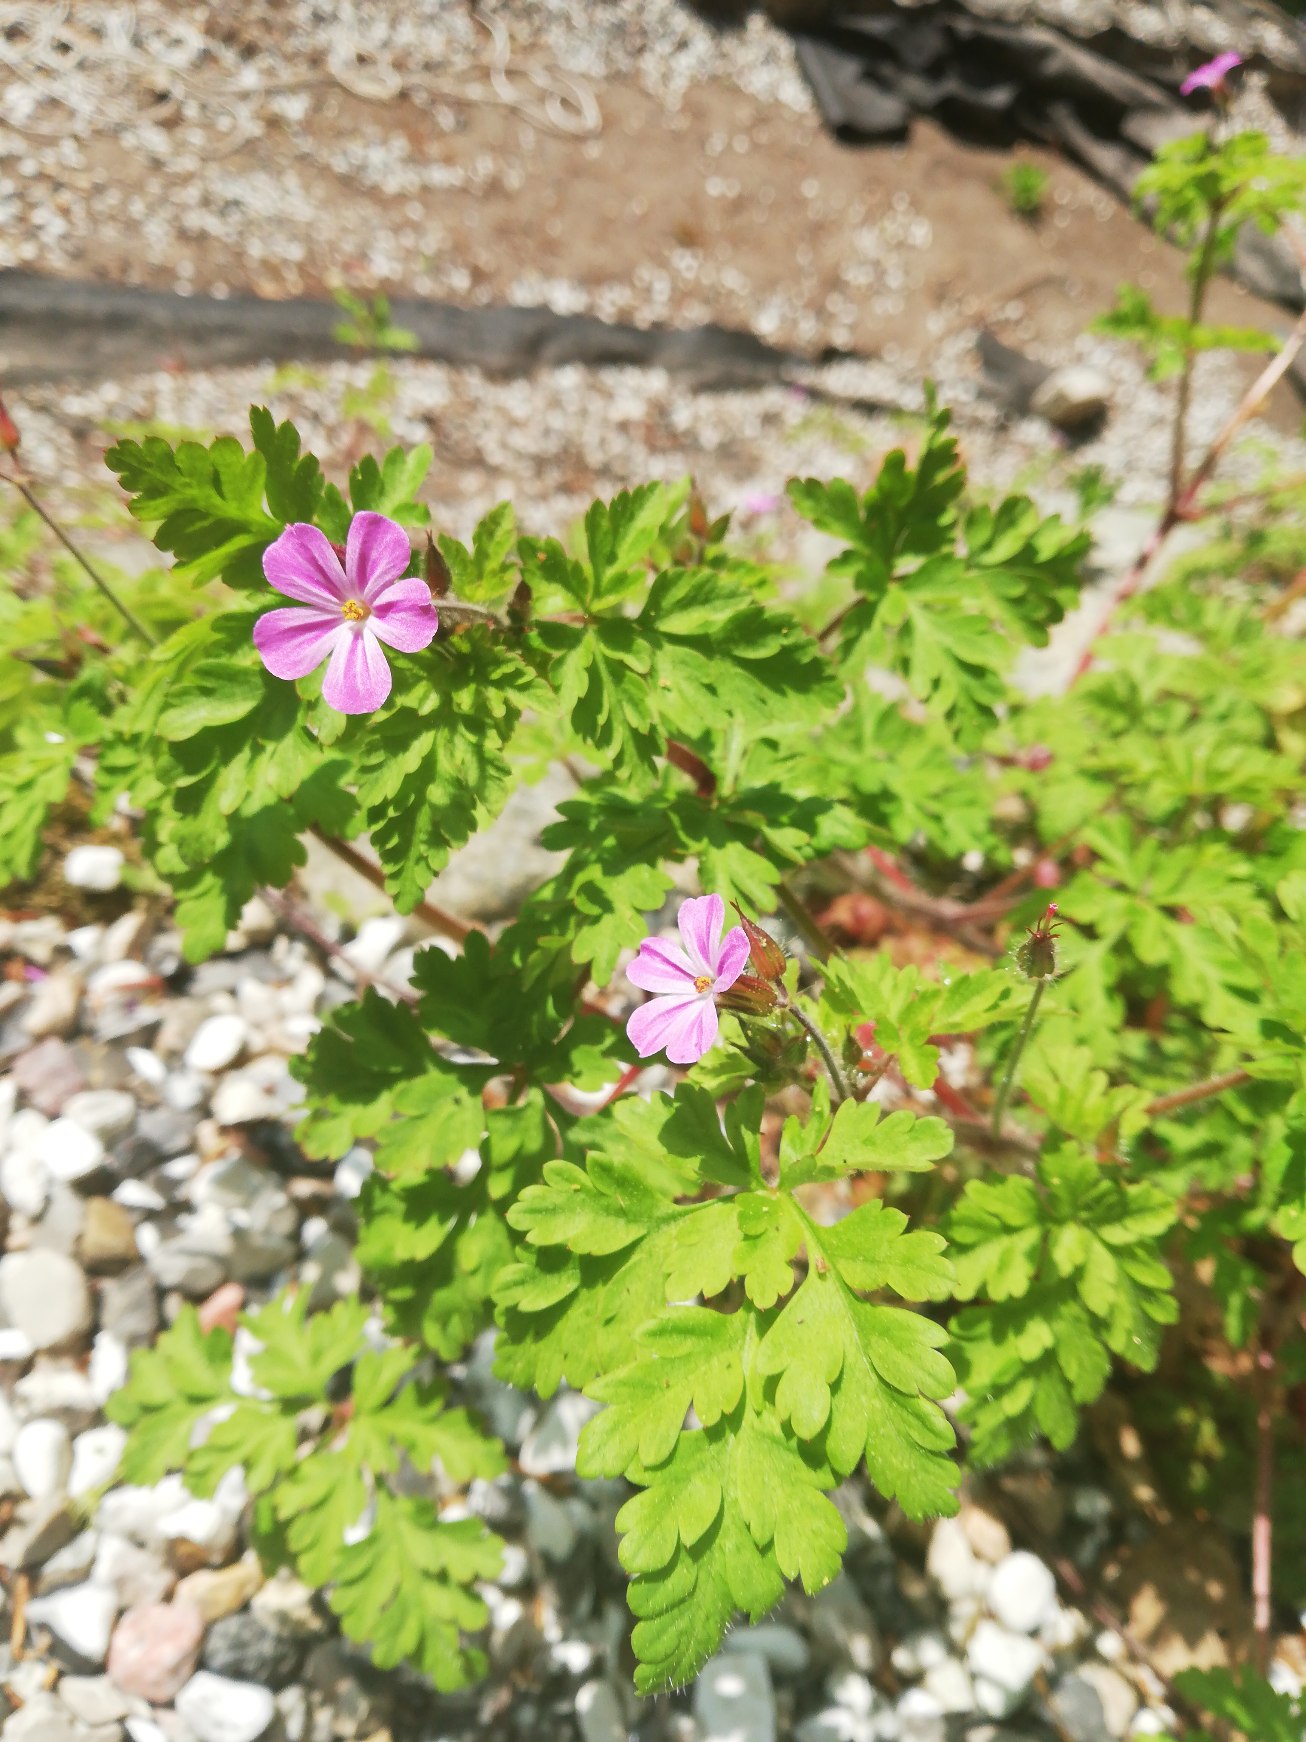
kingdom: Plantae
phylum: Tracheophyta
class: Magnoliopsida
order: Geraniales
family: Geraniaceae
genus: Geranium
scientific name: Geranium robertianum
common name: Stinkende storkenæb
